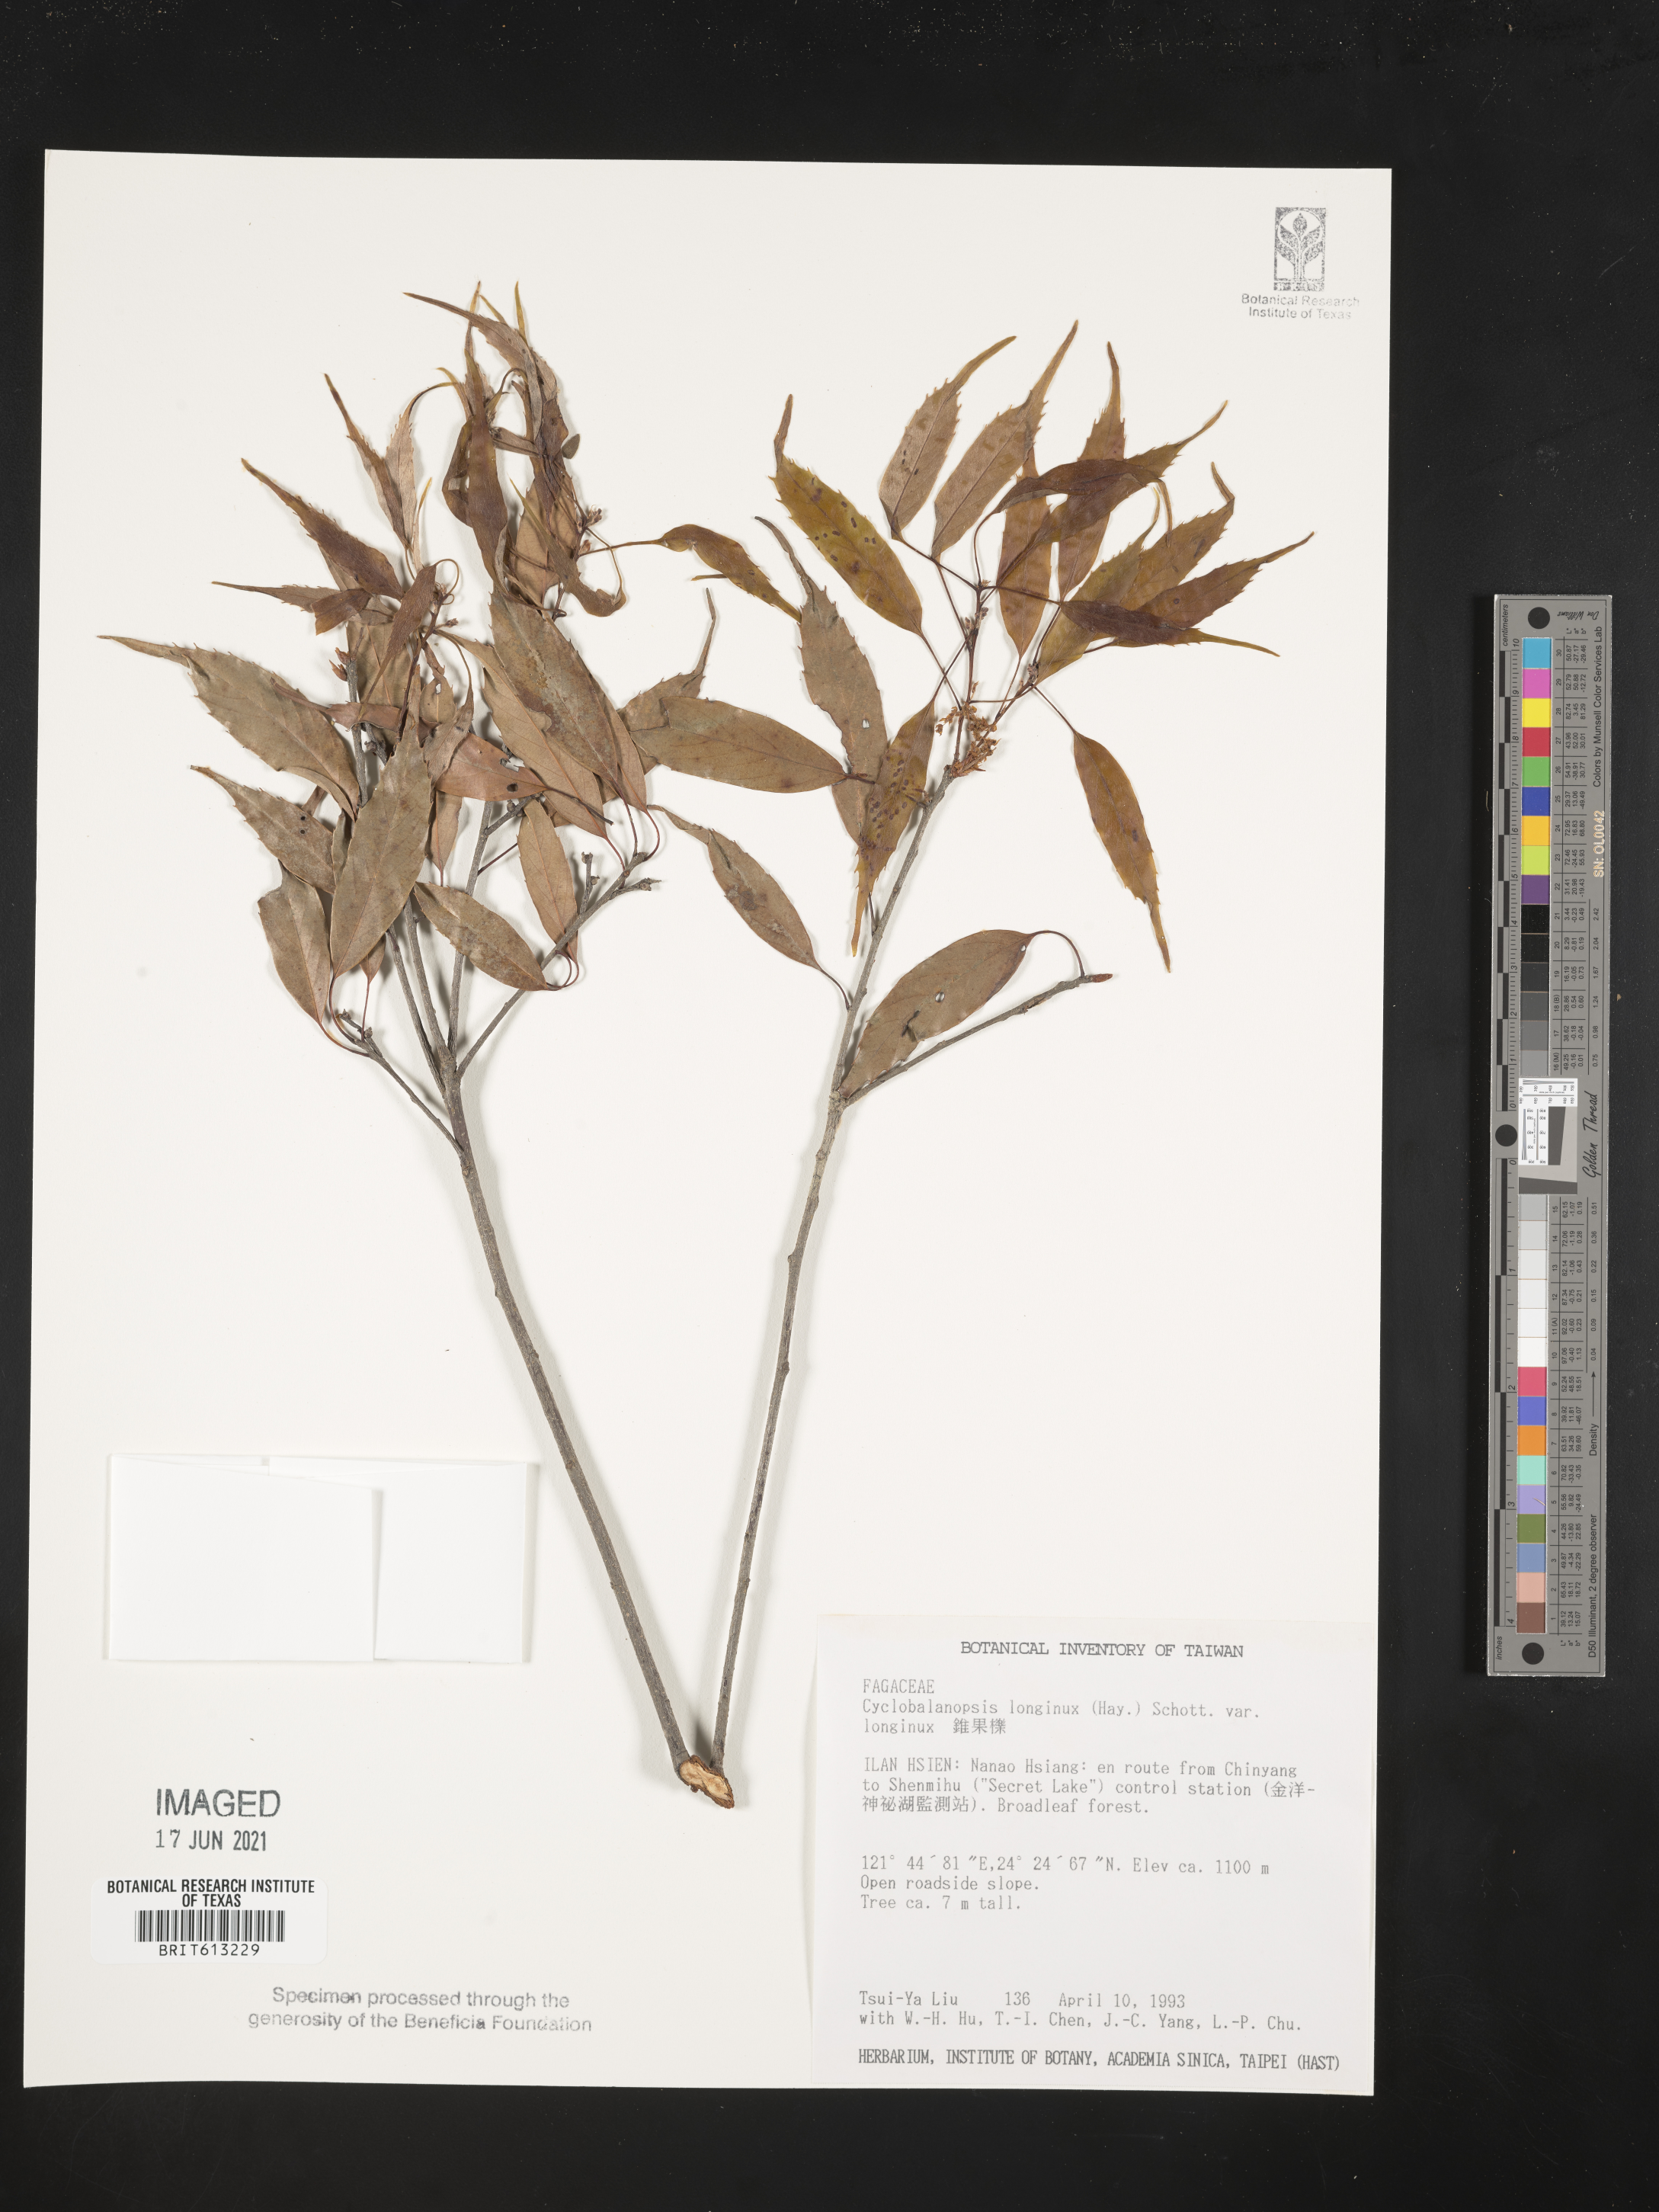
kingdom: Plantae
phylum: Tracheophyta
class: Magnoliopsida
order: Fagales
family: Fagaceae
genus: Quercus
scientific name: Quercus longinux
